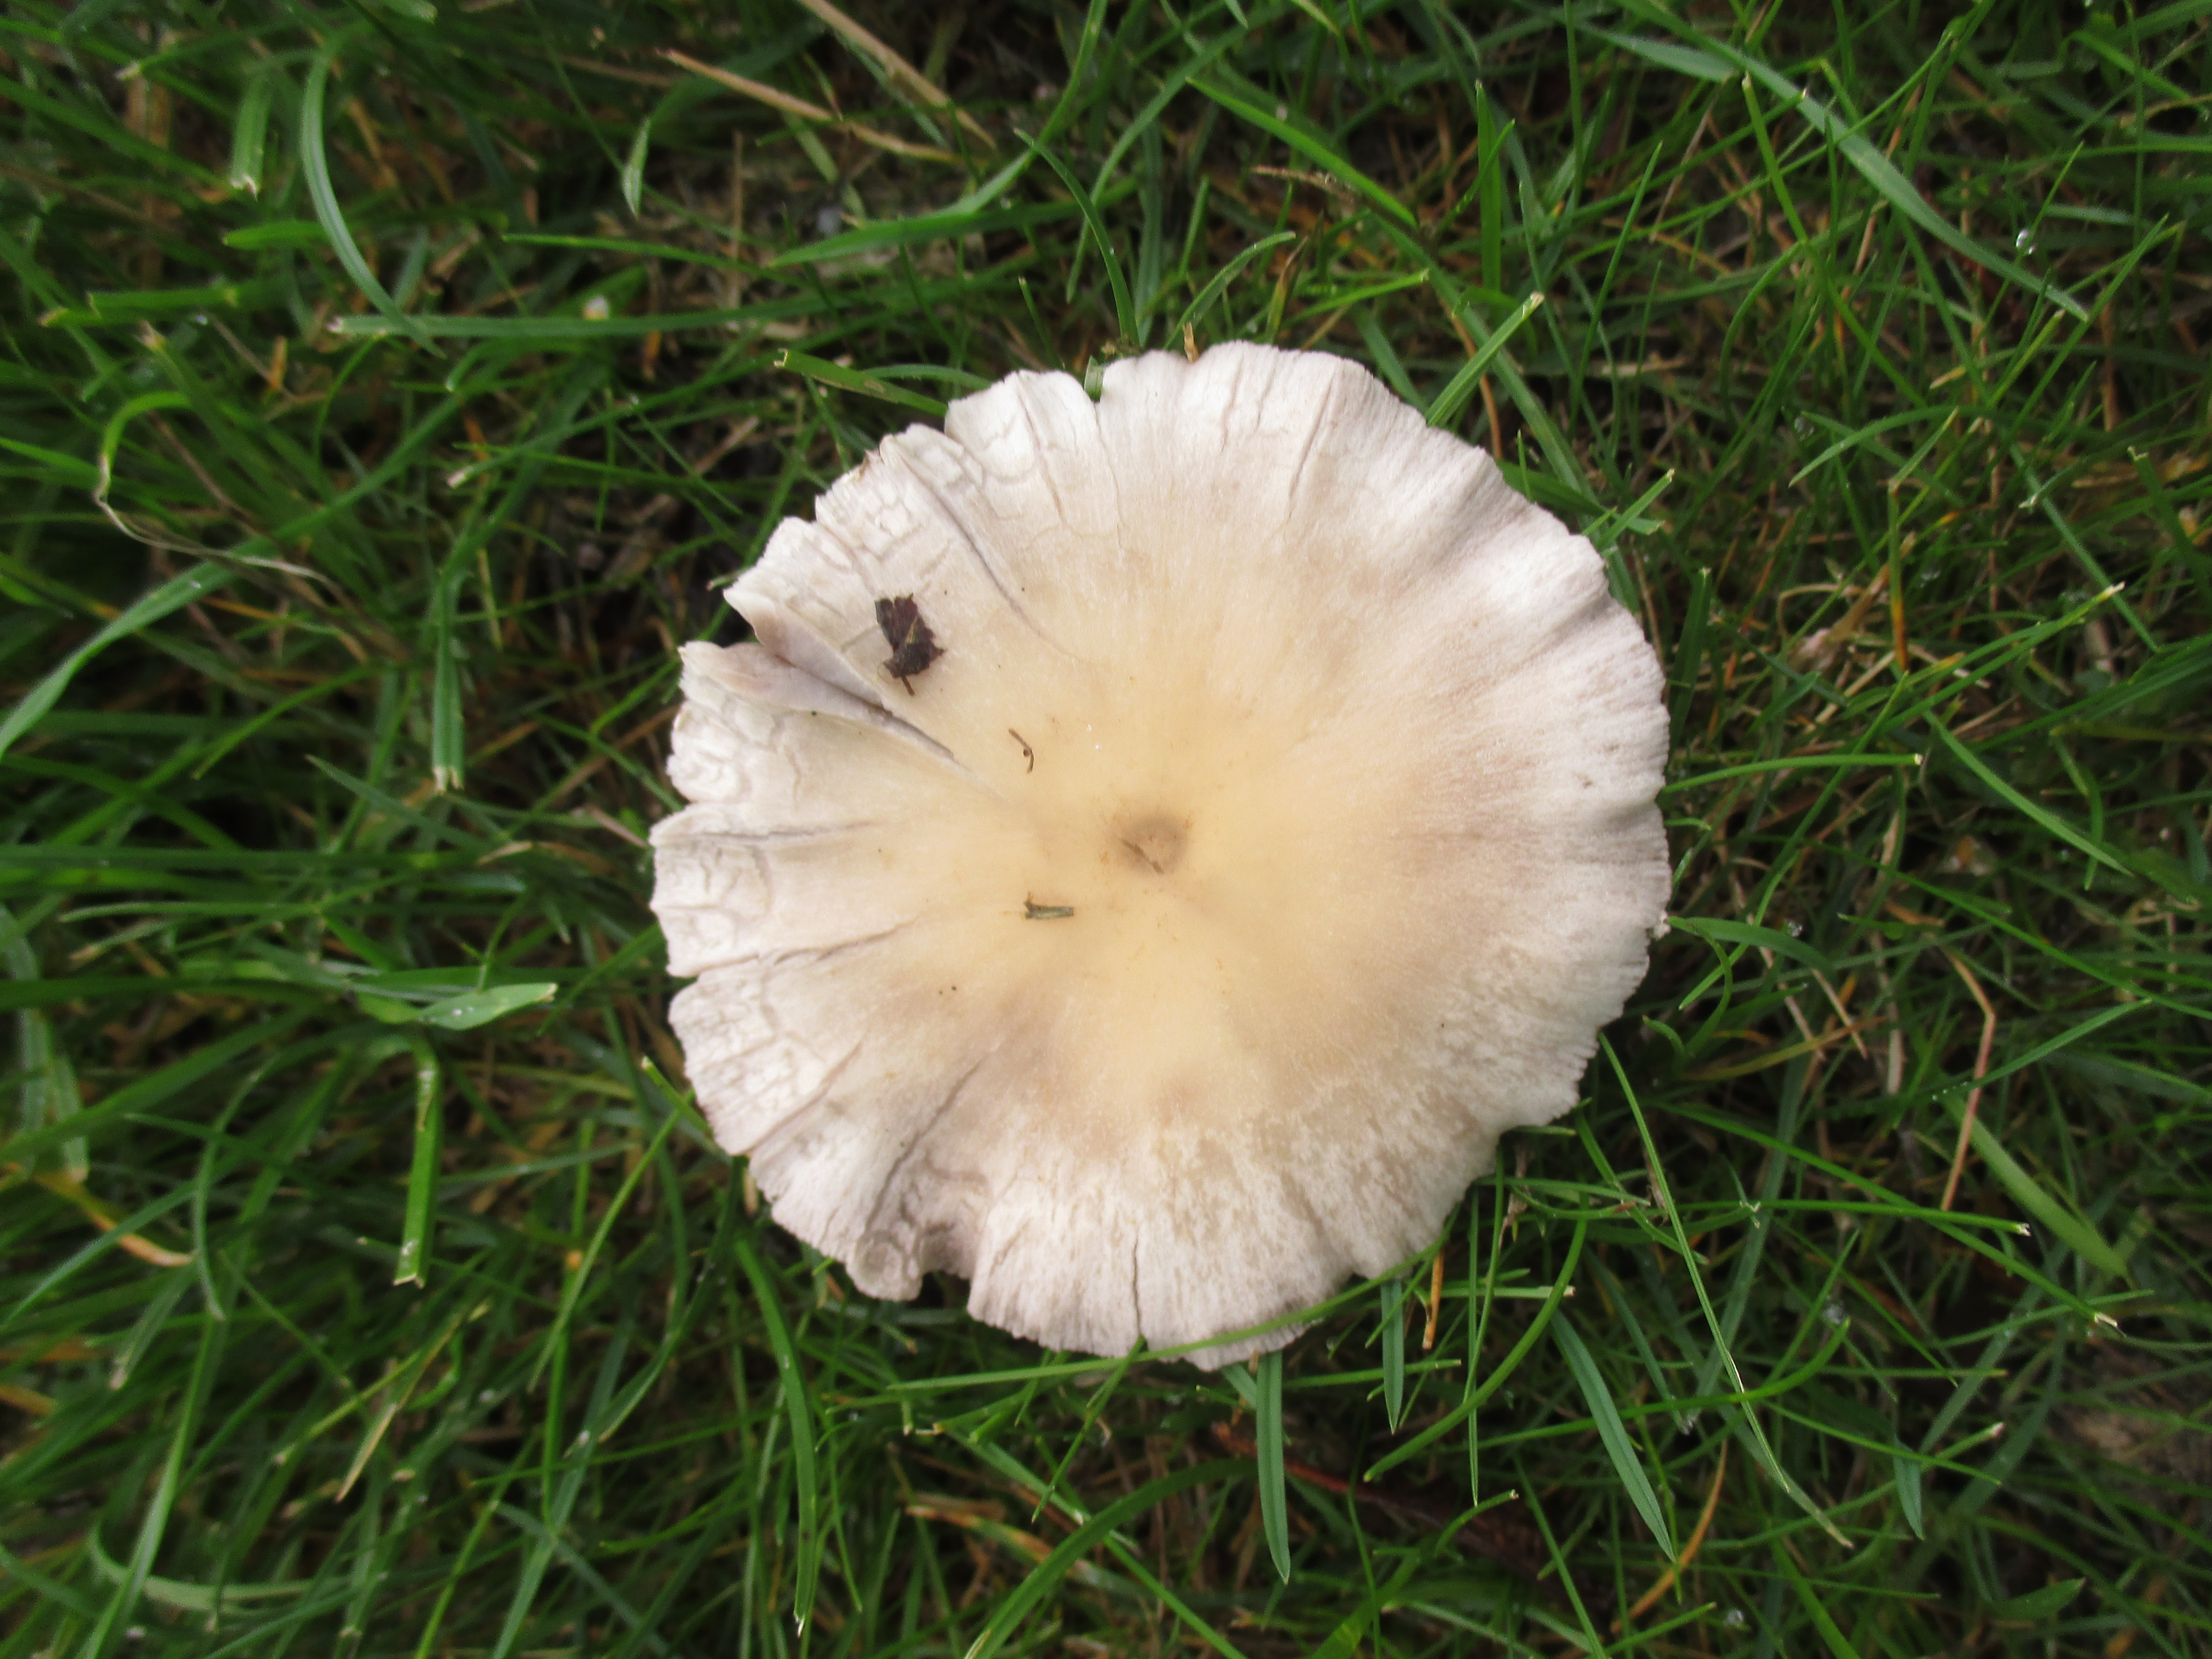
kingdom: Fungi
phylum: Basidiomycota
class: Agaricomycetes
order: Agaricales
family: Psathyrellaceae
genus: Candolleomyces
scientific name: Candolleomyces candolleanus
